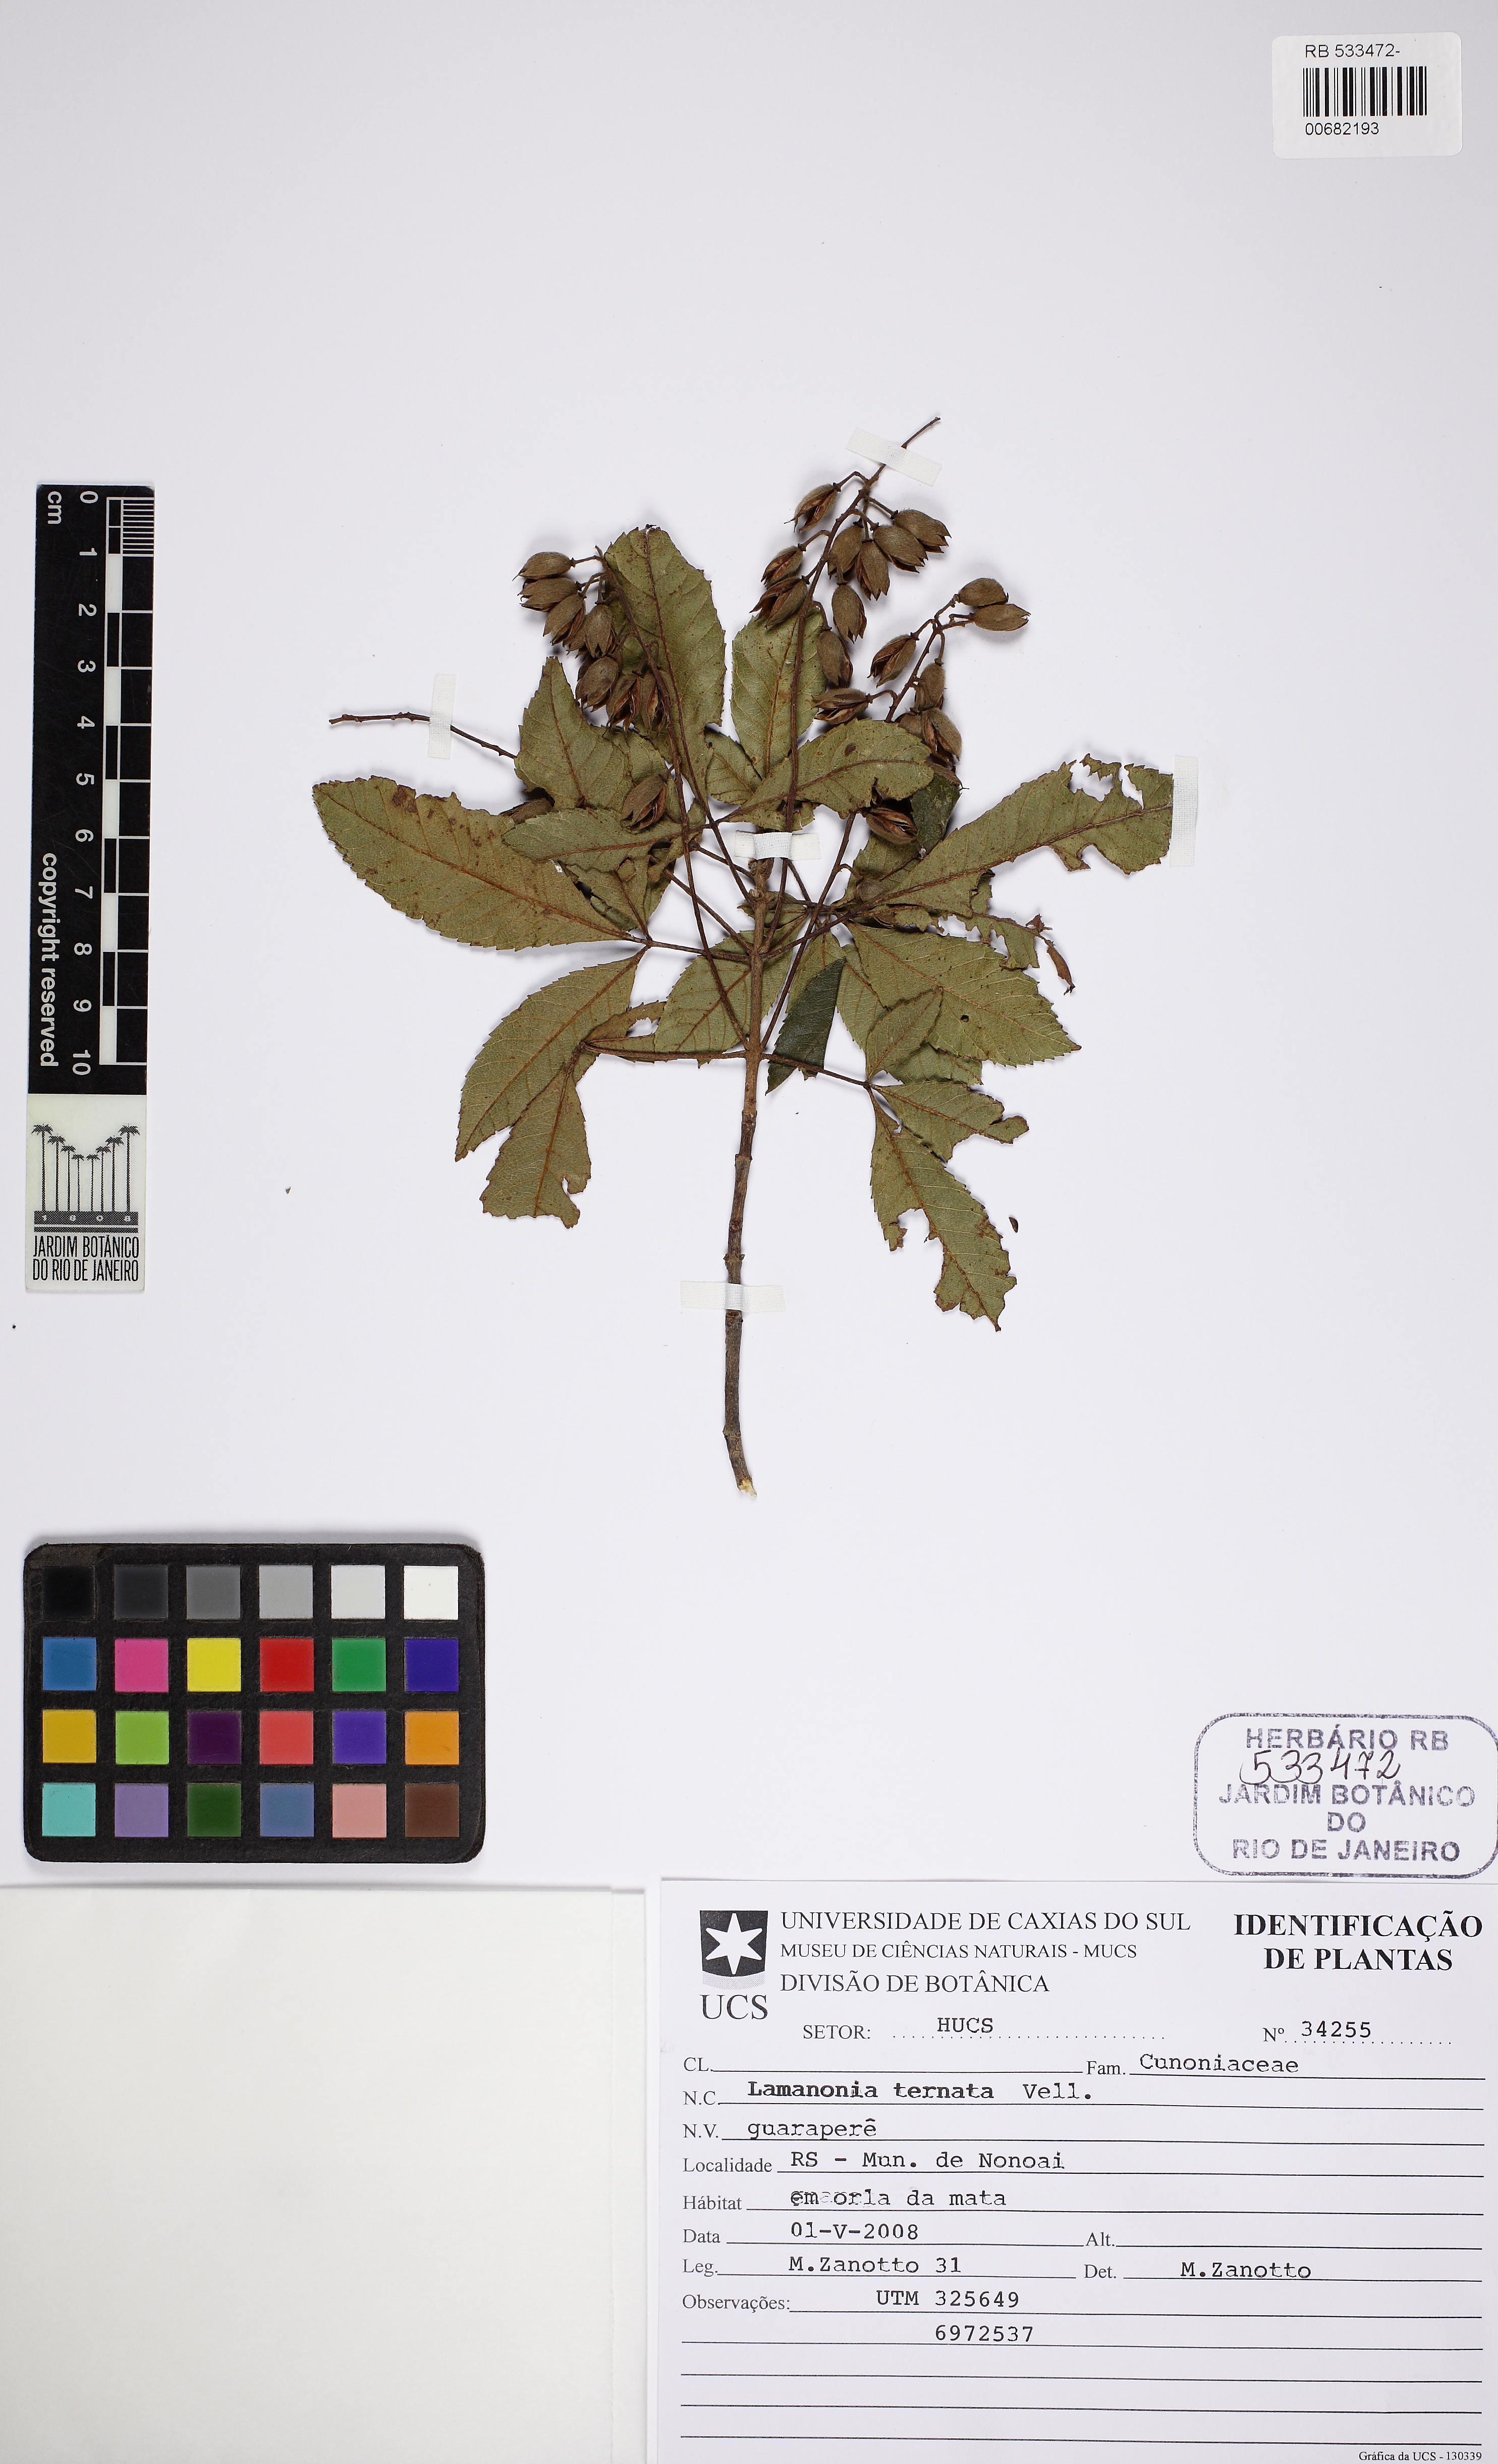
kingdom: Plantae
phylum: Tracheophyta
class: Magnoliopsida
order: Oxalidales
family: Cunoniaceae
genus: Lamanonia
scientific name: Lamanonia ternata
